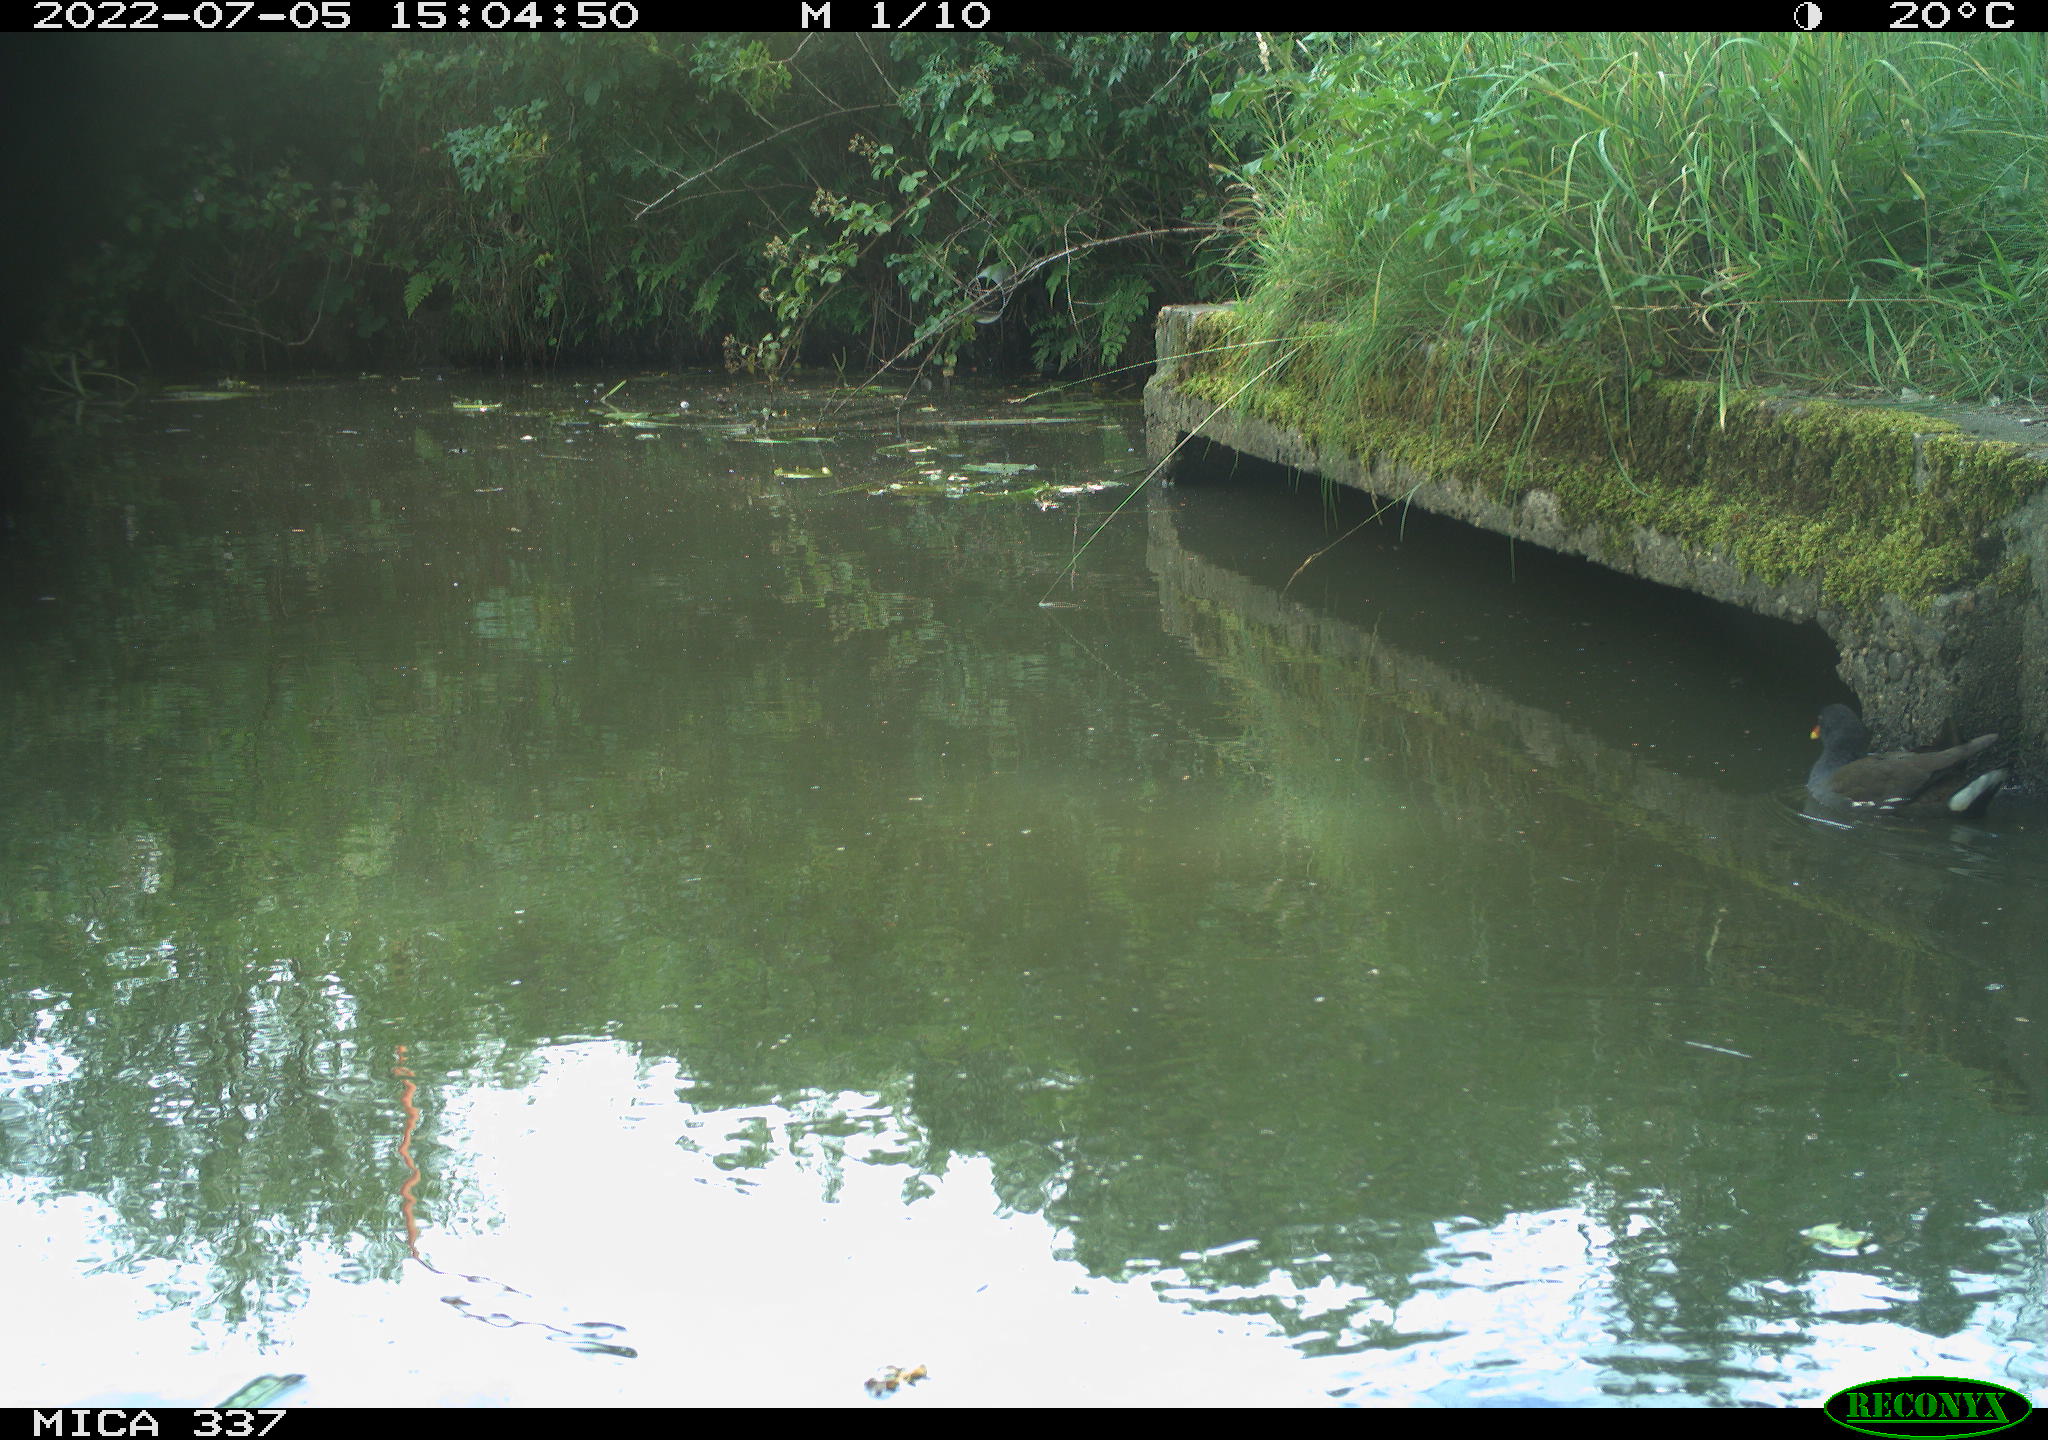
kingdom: Animalia
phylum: Chordata
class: Aves
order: Gruiformes
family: Rallidae
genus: Gallinula
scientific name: Gallinula chloropus
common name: Common moorhen
